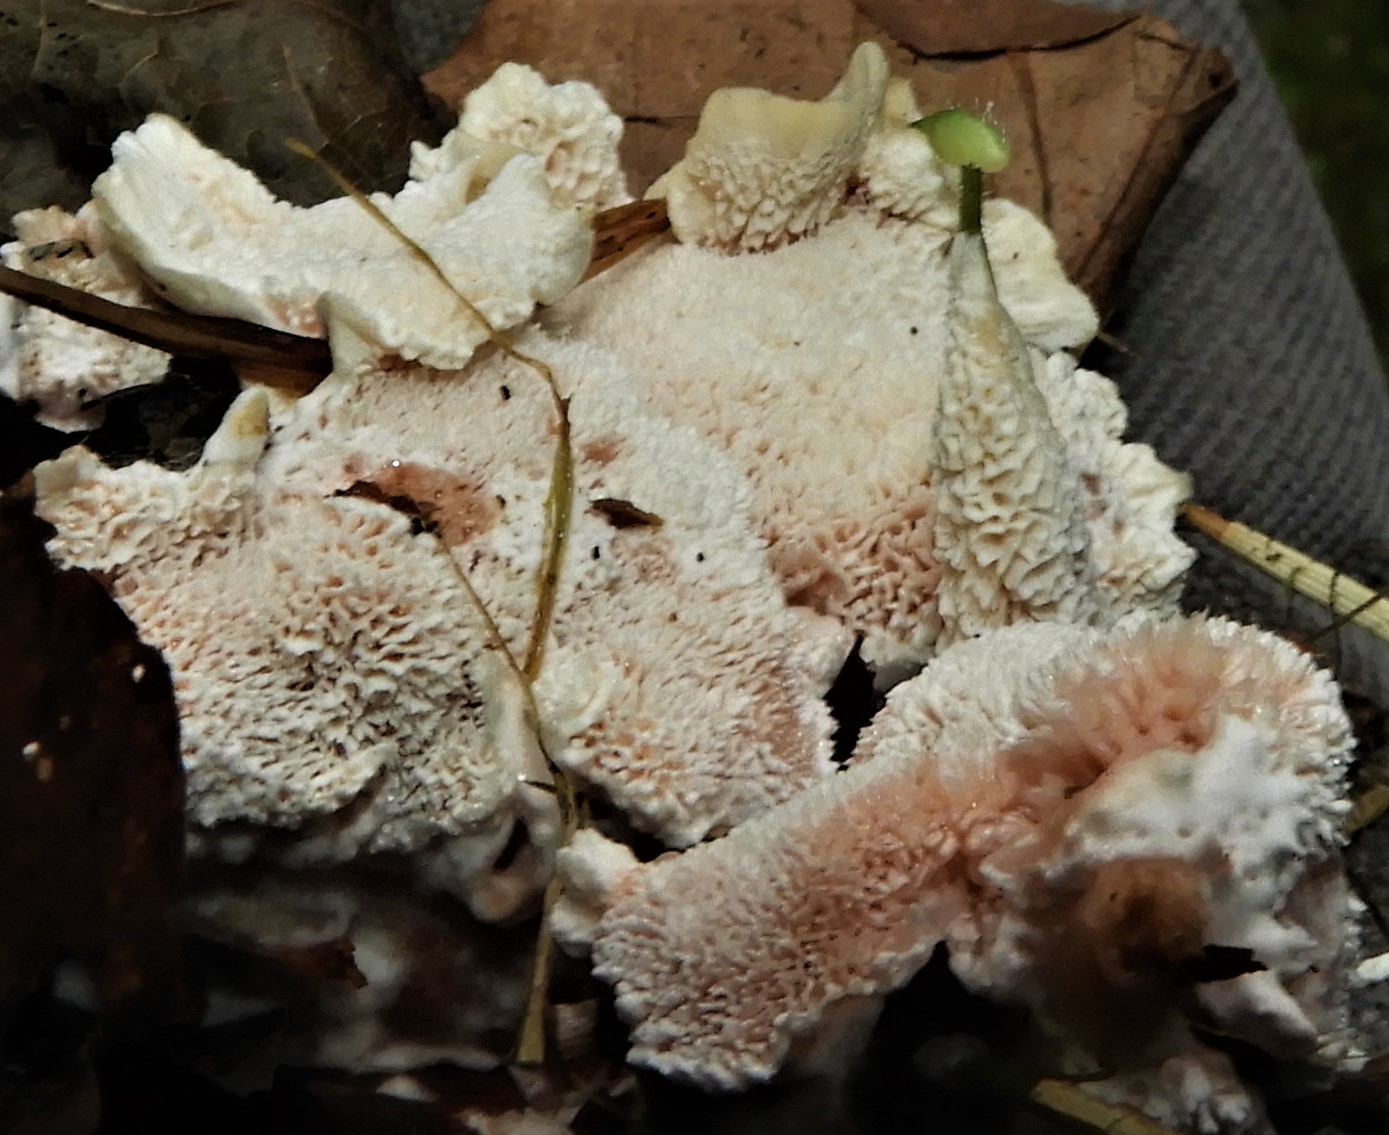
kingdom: Fungi
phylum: Basidiomycota
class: Agaricomycetes
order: Polyporales
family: Podoscyphaceae
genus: Abortiporus
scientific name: Abortiporus biennis
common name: rødmende pjalteporesvamp
